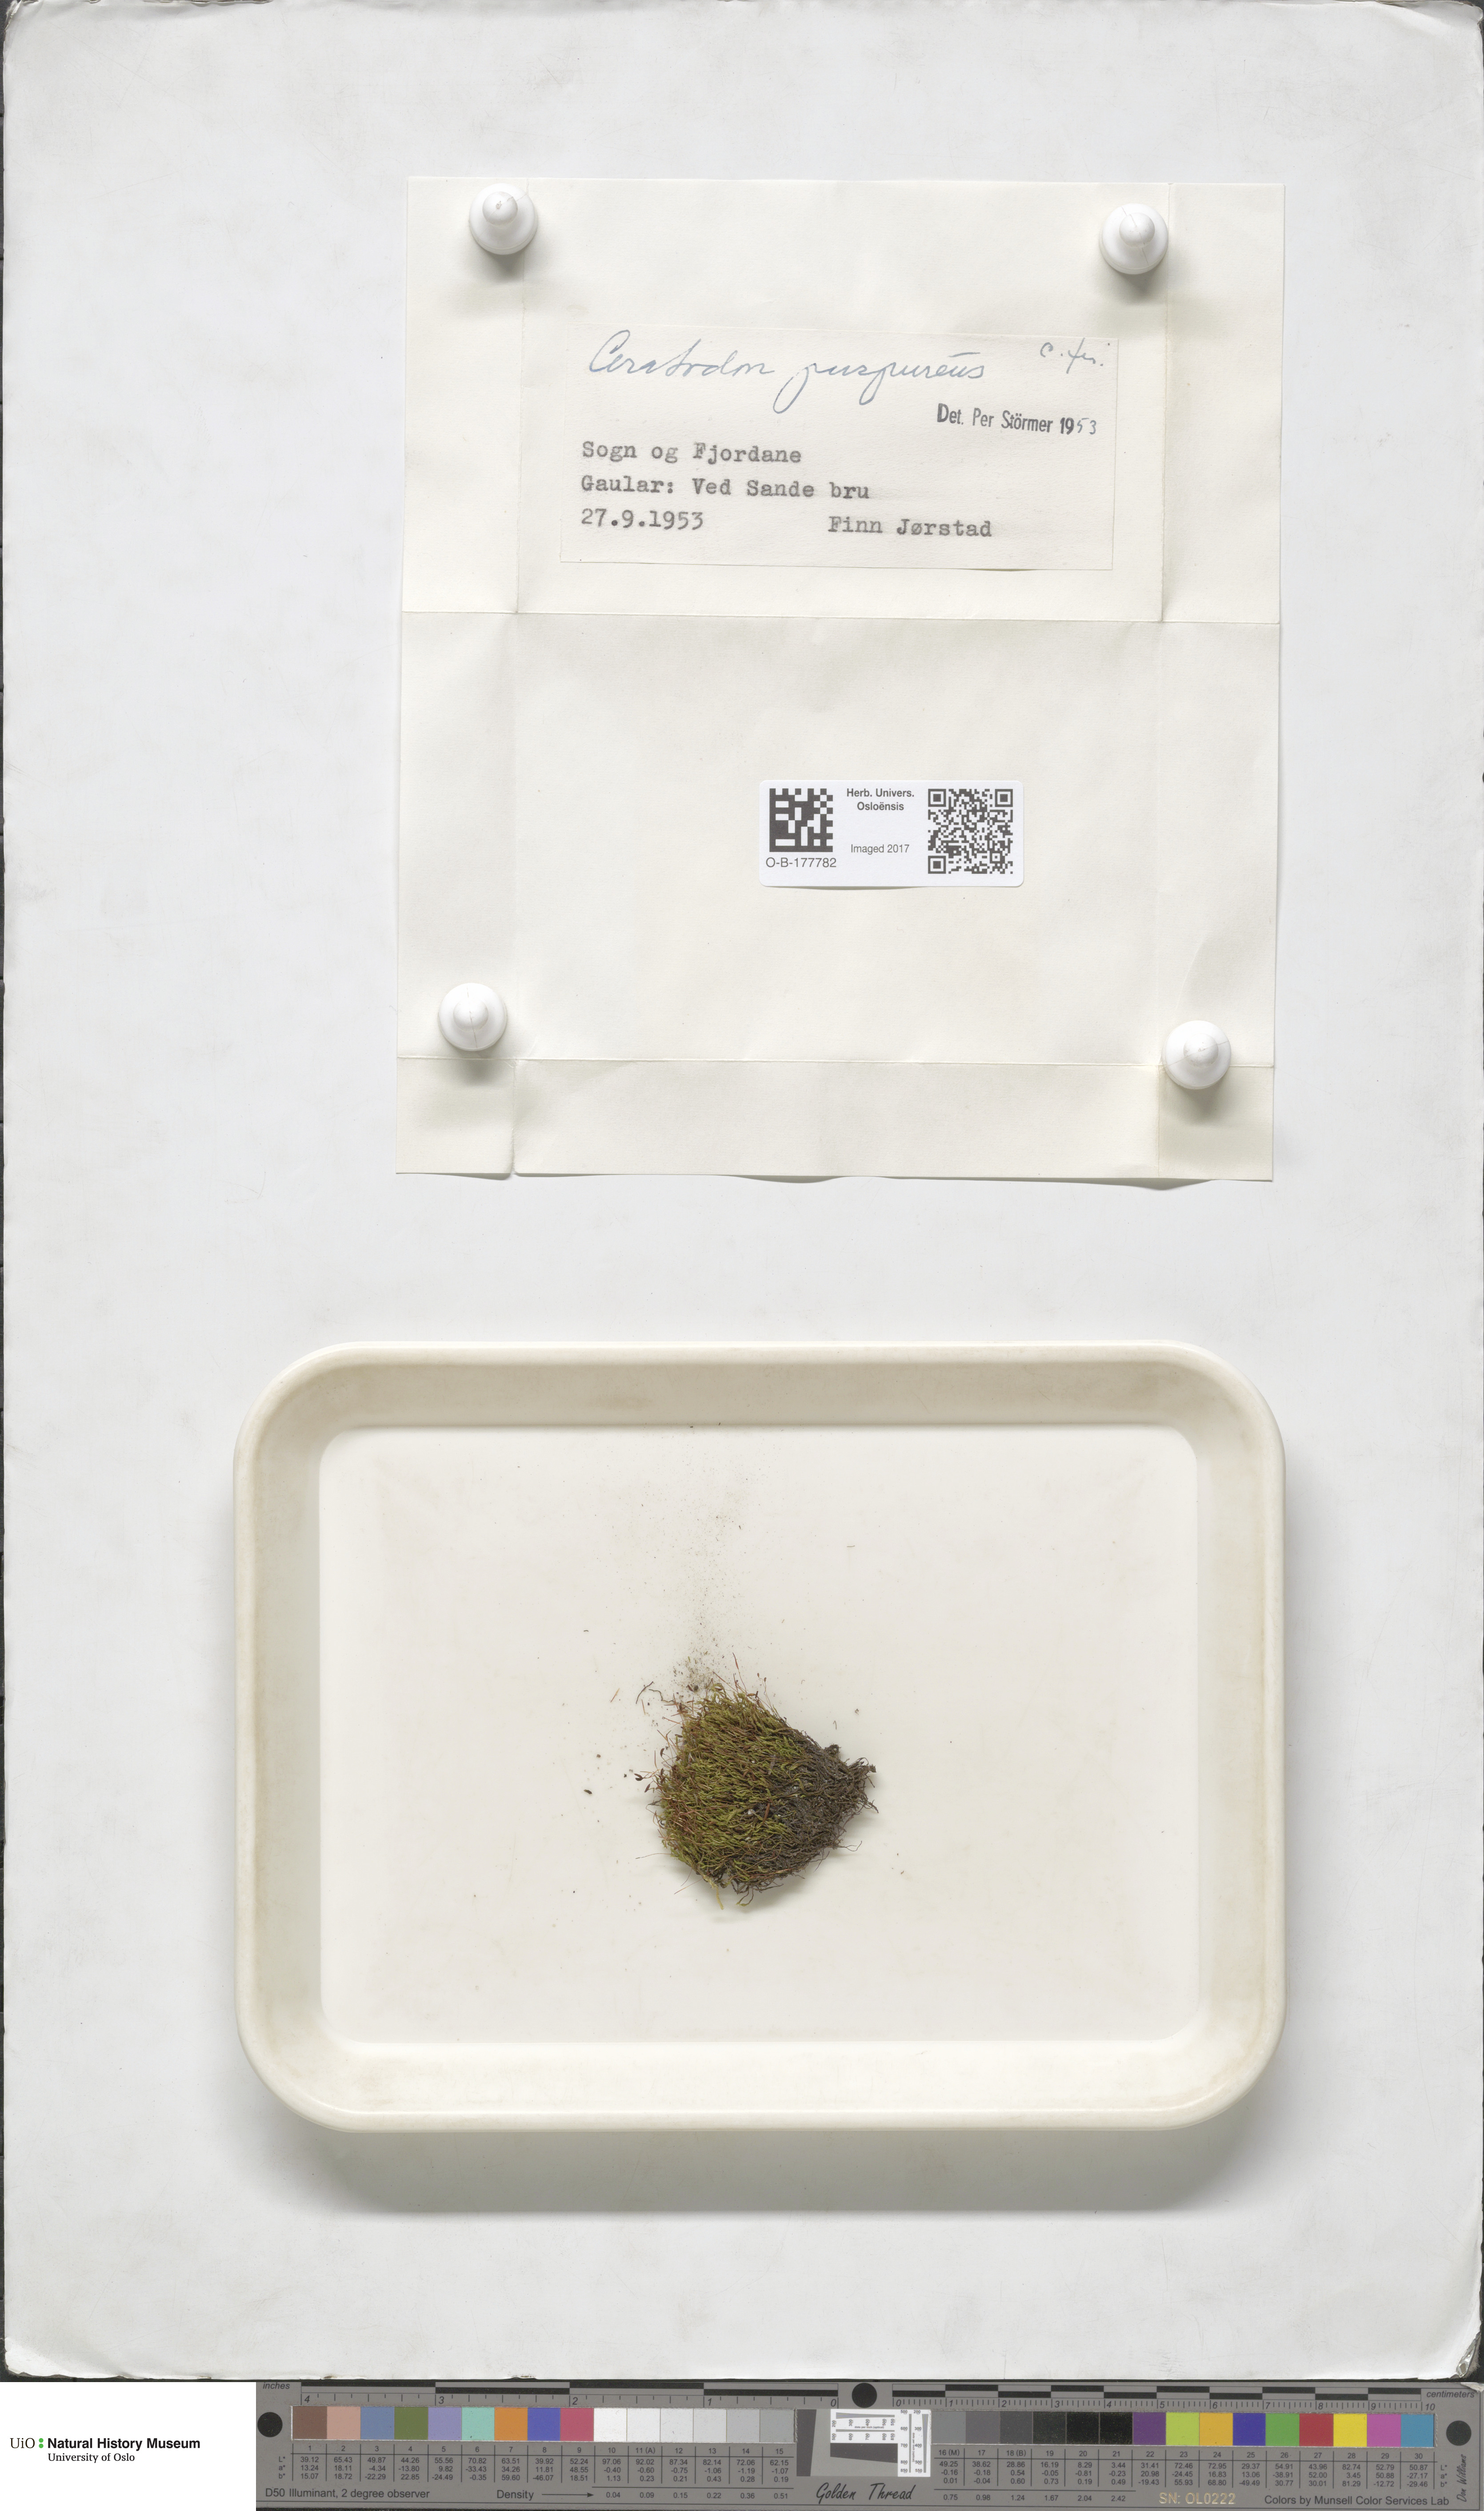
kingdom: Plantae
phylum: Bryophyta
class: Bryopsida
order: Dicranales
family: Ditrichaceae
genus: Ceratodon
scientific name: Ceratodon purpureus
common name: Redshank
